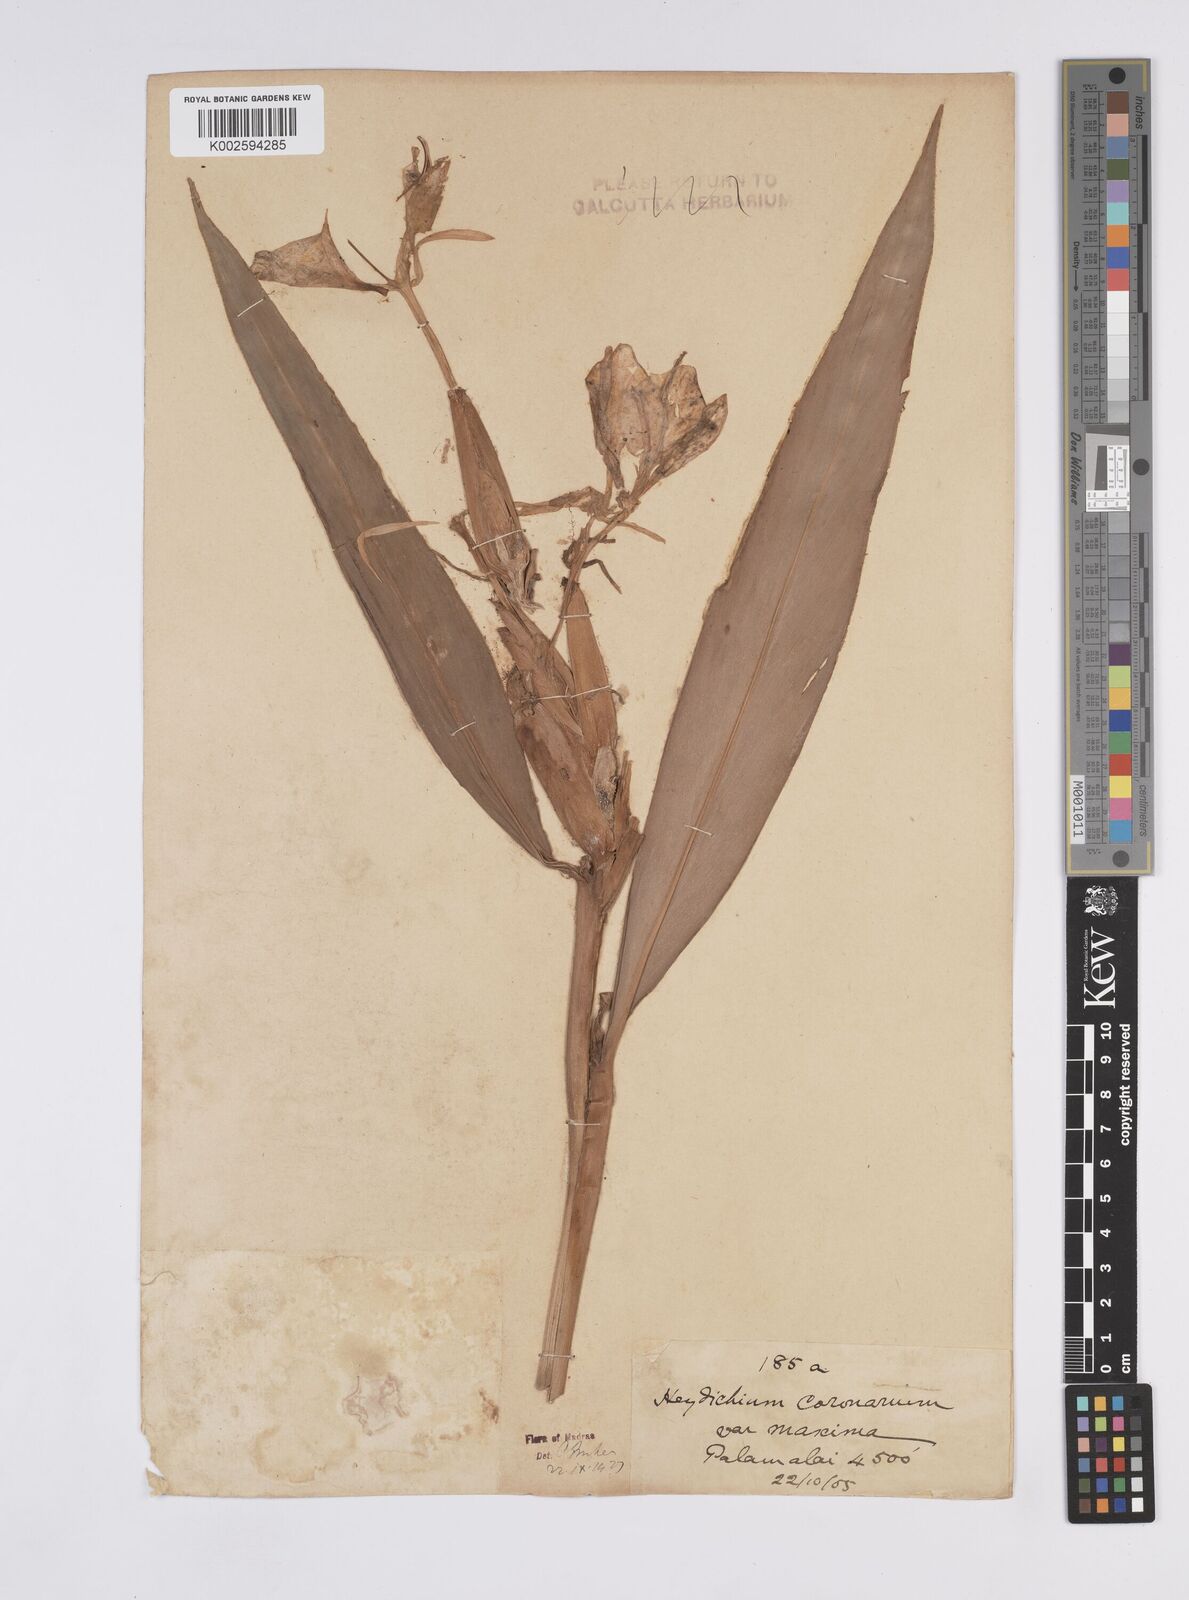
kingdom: Plantae
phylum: Tracheophyta
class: Liliopsida
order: Zingiberales
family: Zingiberaceae
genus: Hedychium
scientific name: Hedychium coronarium
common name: White garland-lily
